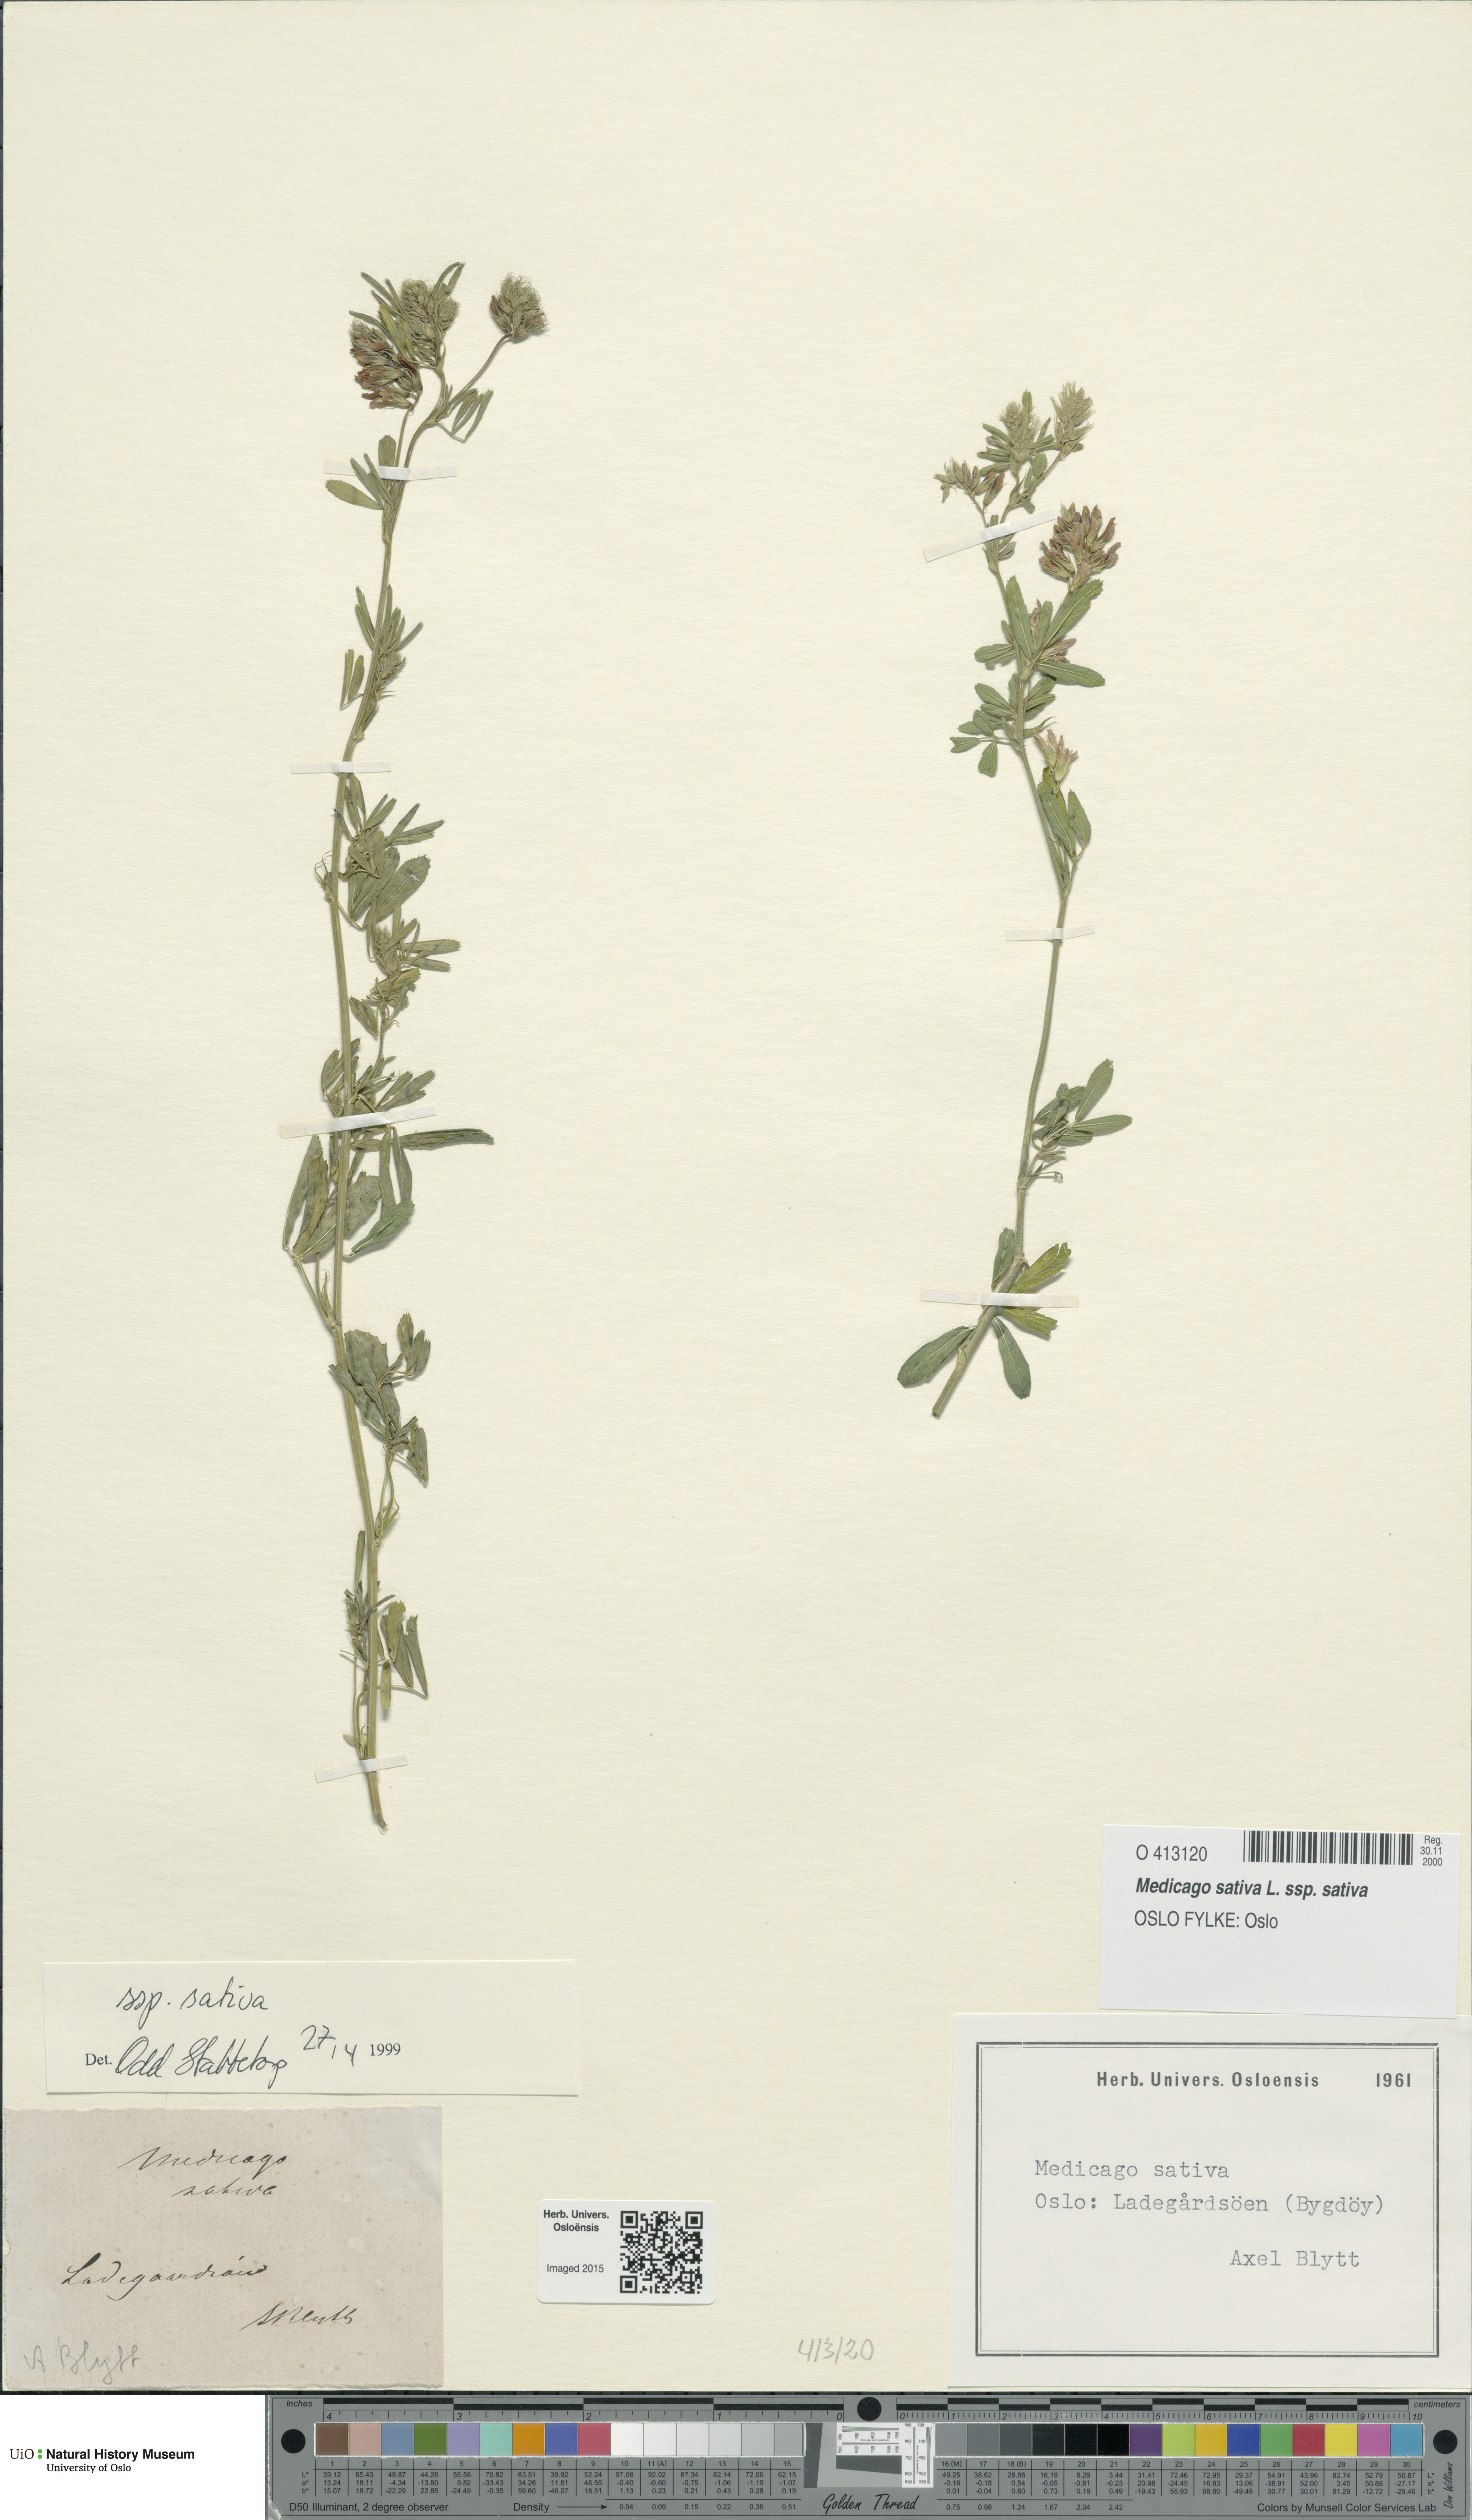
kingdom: Plantae
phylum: Tracheophyta
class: Magnoliopsida
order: Fabales
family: Fabaceae
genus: Medicago
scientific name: Medicago sativa
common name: Alfalfa
